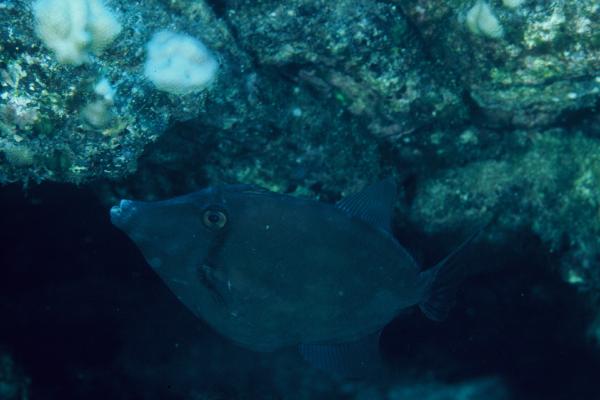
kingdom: Animalia
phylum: Chordata
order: Tetraodontiformes
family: Monacanthidae
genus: Cantherhines
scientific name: Cantherhines rapanui
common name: Rapanui filefish
